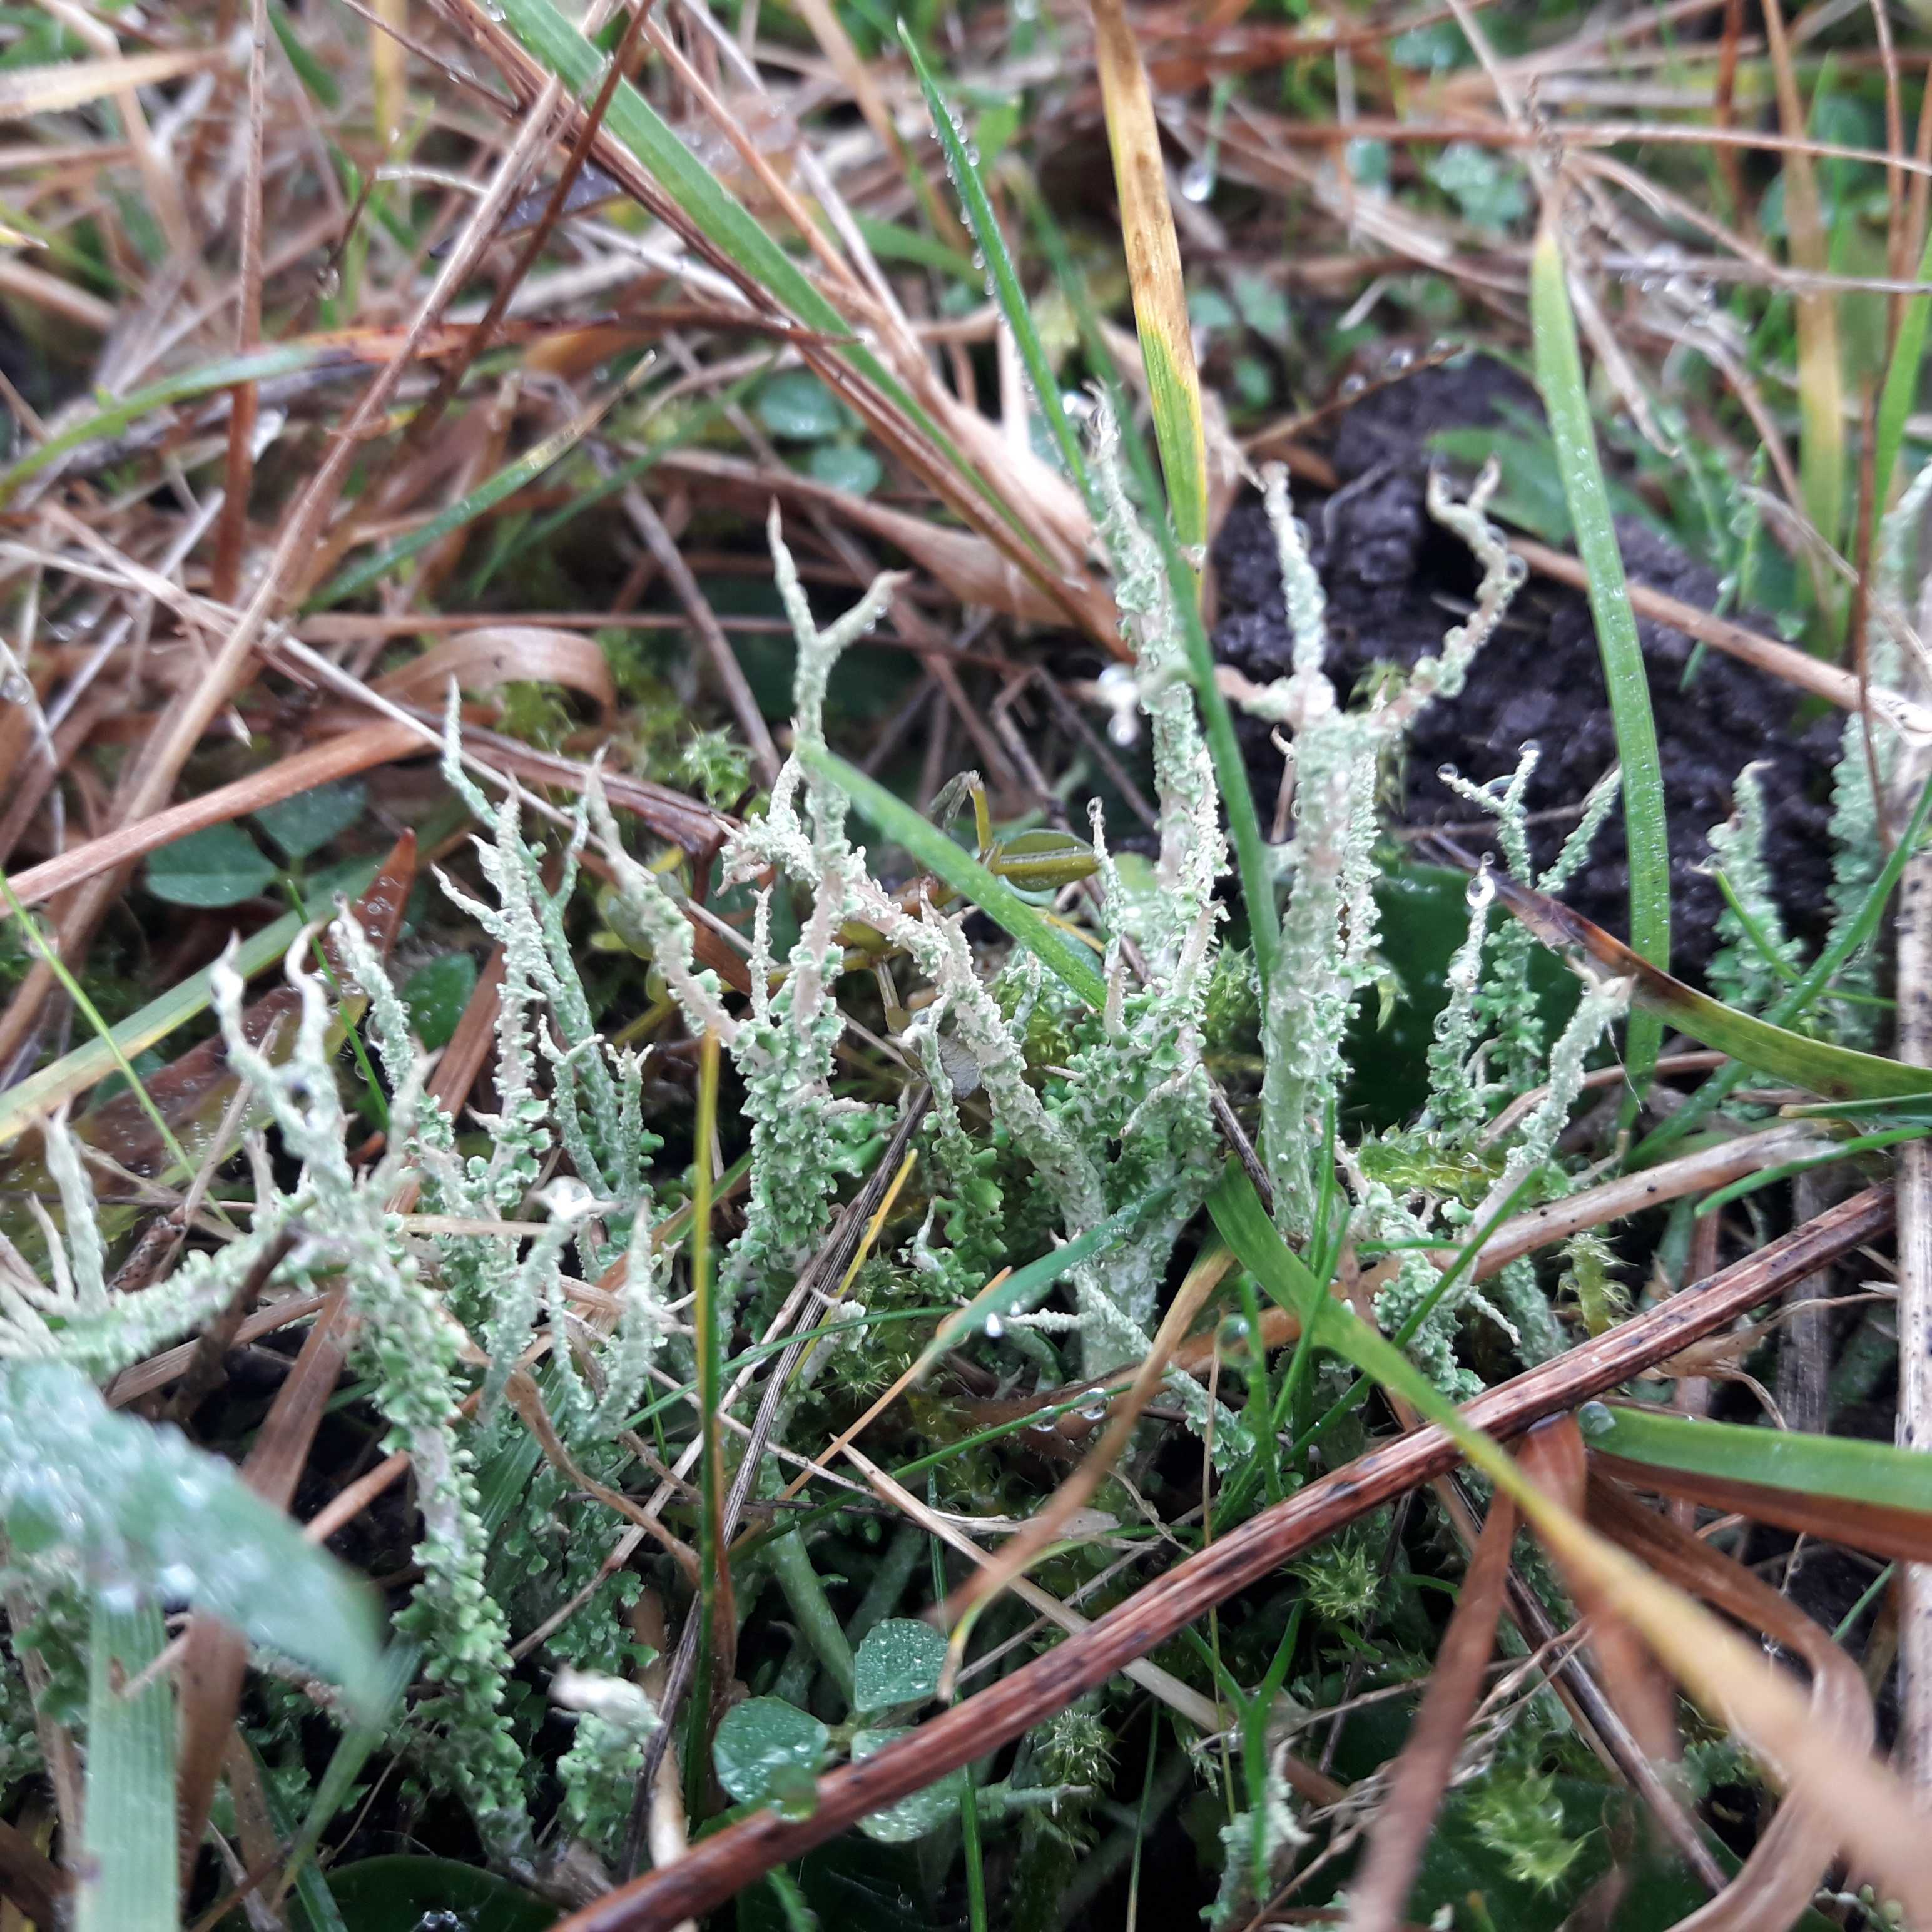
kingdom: Fungi
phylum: Ascomycota
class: Lecanoromycetes
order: Lecanorales
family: Cladoniaceae
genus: Cladonia
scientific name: Cladonia scabriuscula
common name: ru bægerlav
